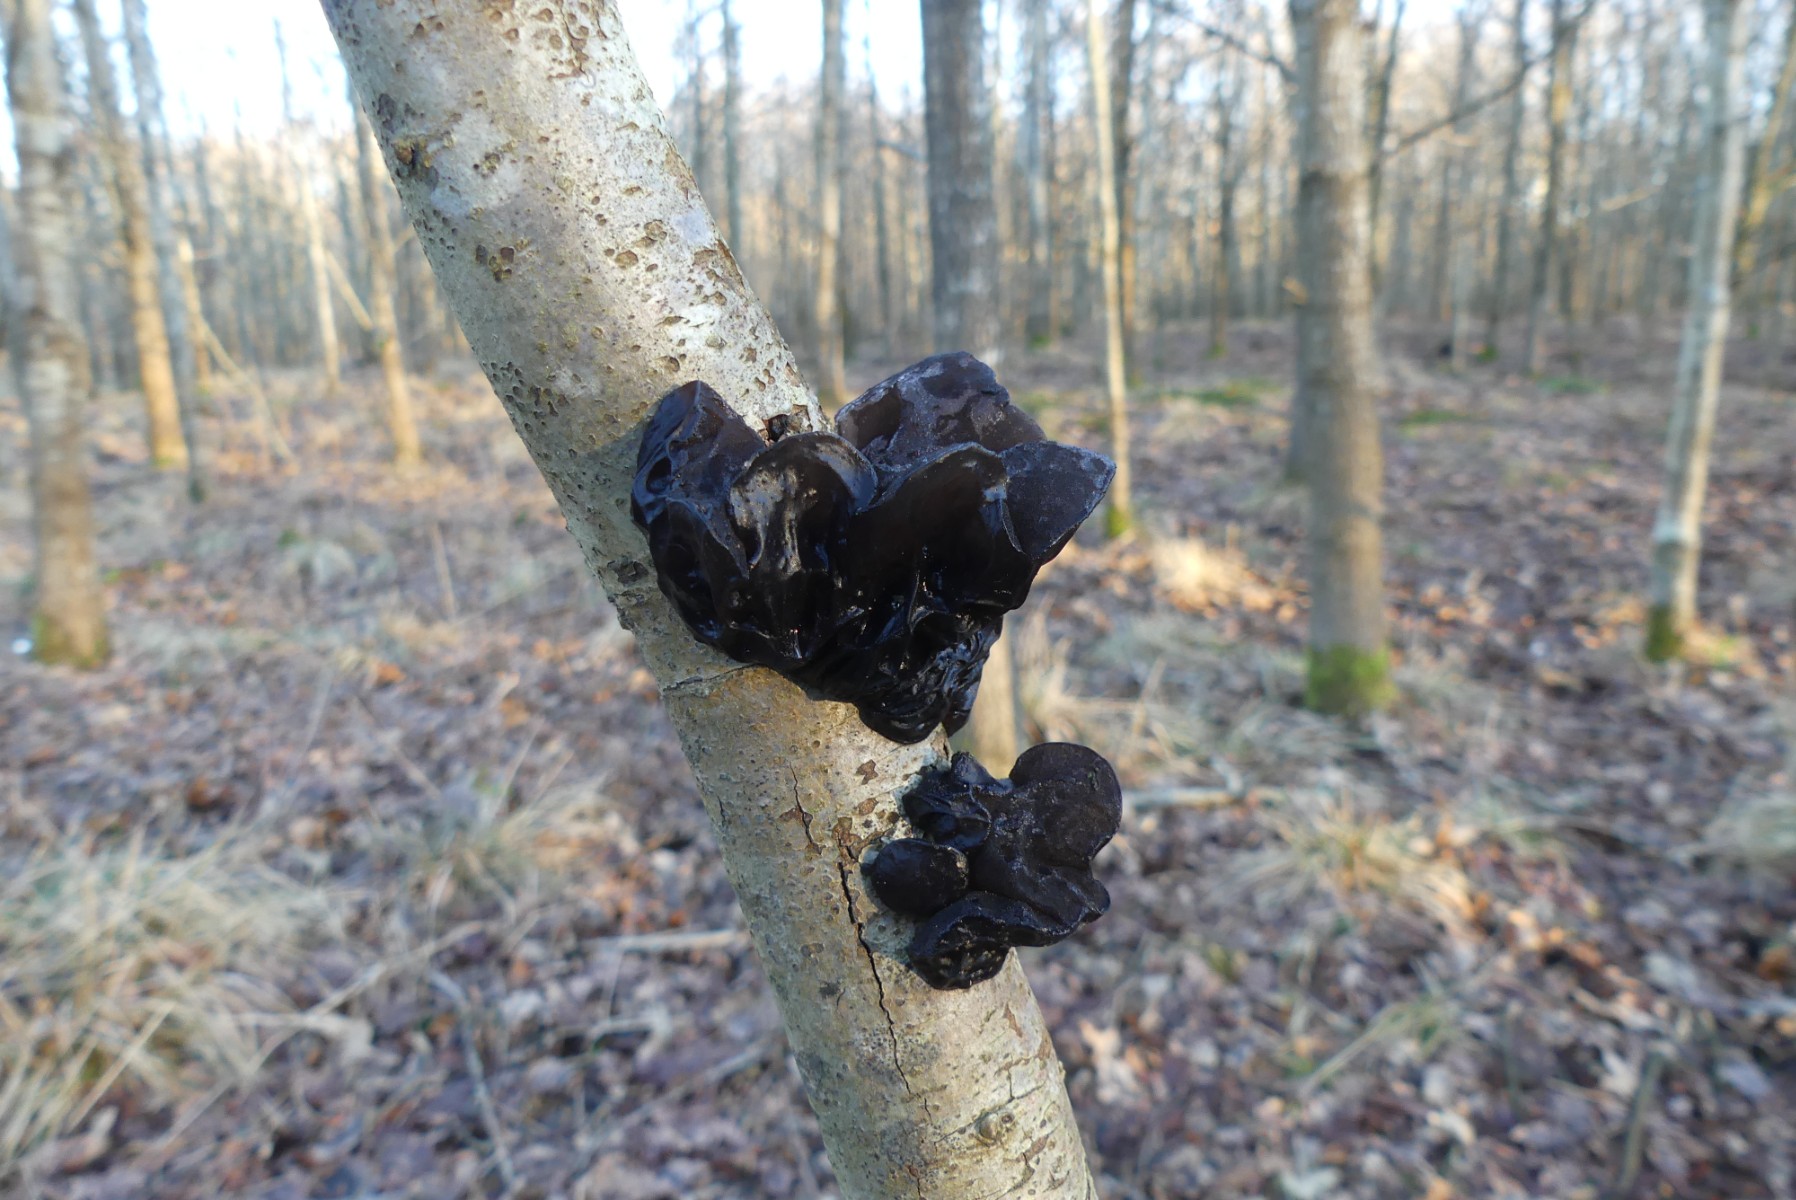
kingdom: Fungi
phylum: Basidiomycota
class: Agaricomycetes
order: Auriculariales
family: Auriculariaceae
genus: Exidia
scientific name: Exidia glandulosa
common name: ege-bævretop
